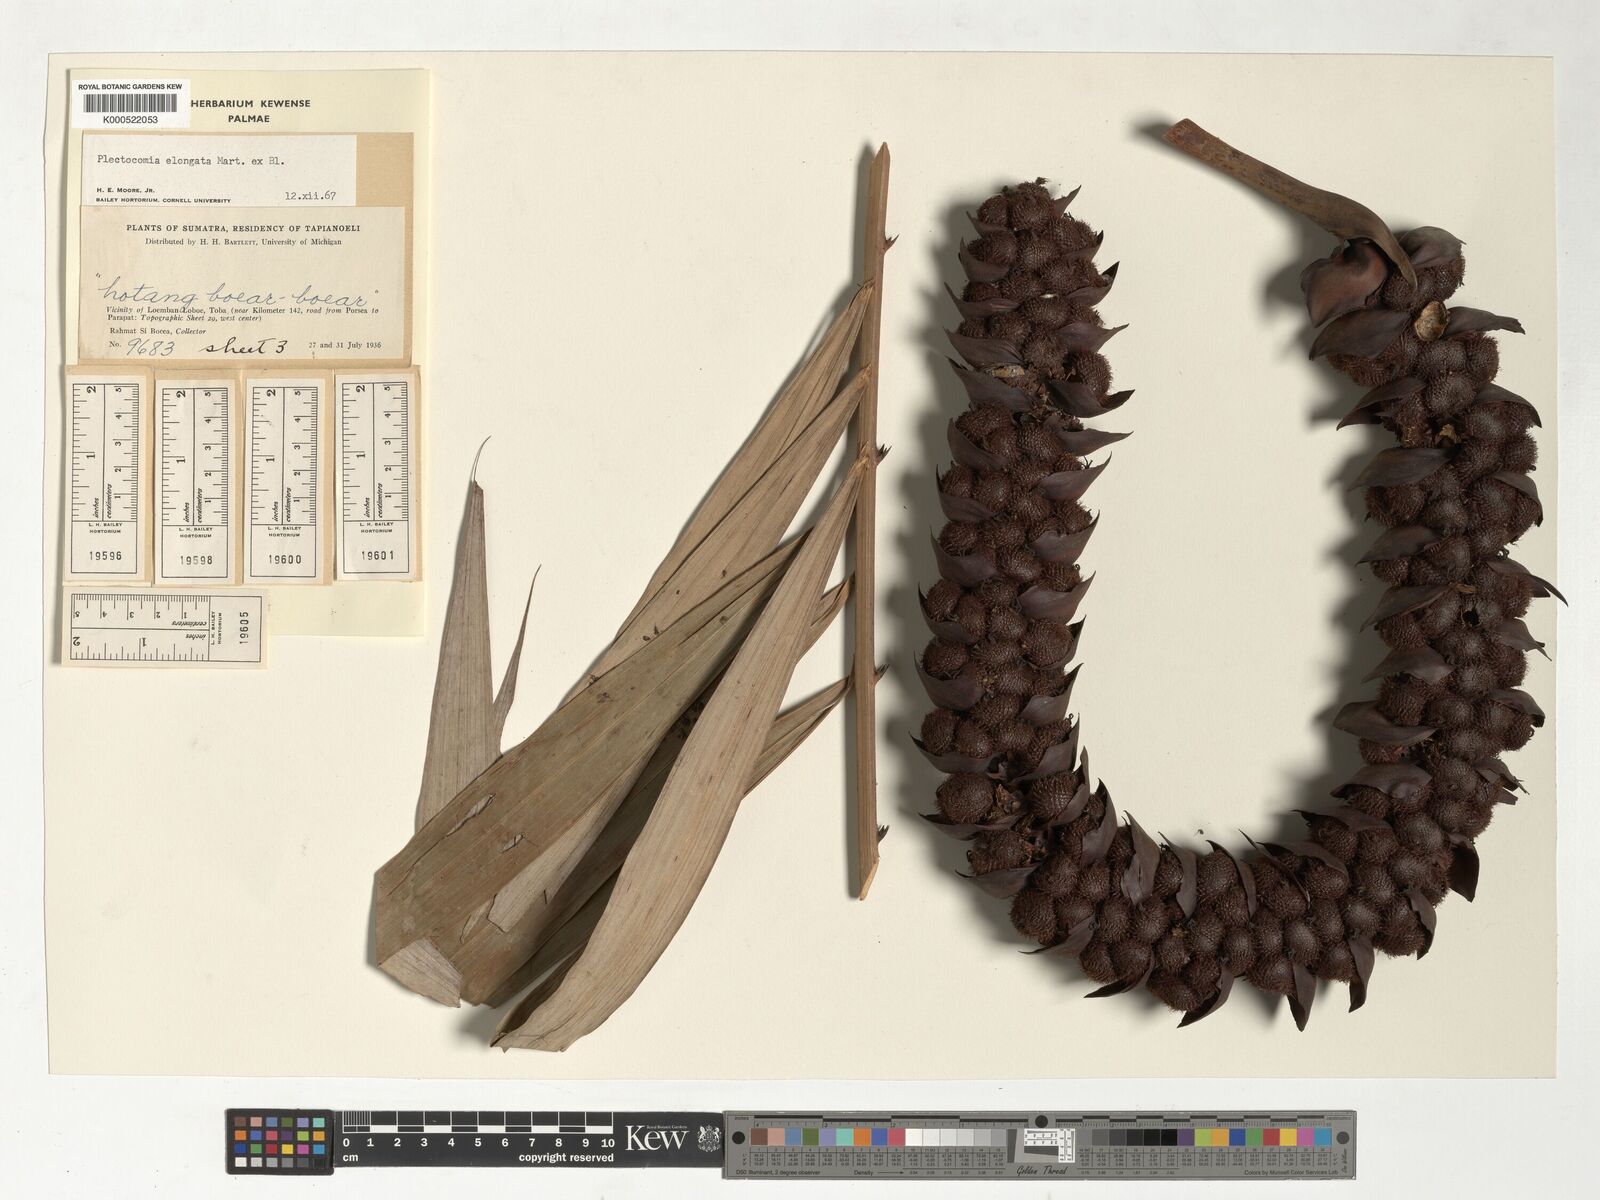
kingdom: Plantae
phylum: Tracheophyta
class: Liliopsida
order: Arecales
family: Arecaceae
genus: Plectocomia
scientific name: Plectocomia elongata
